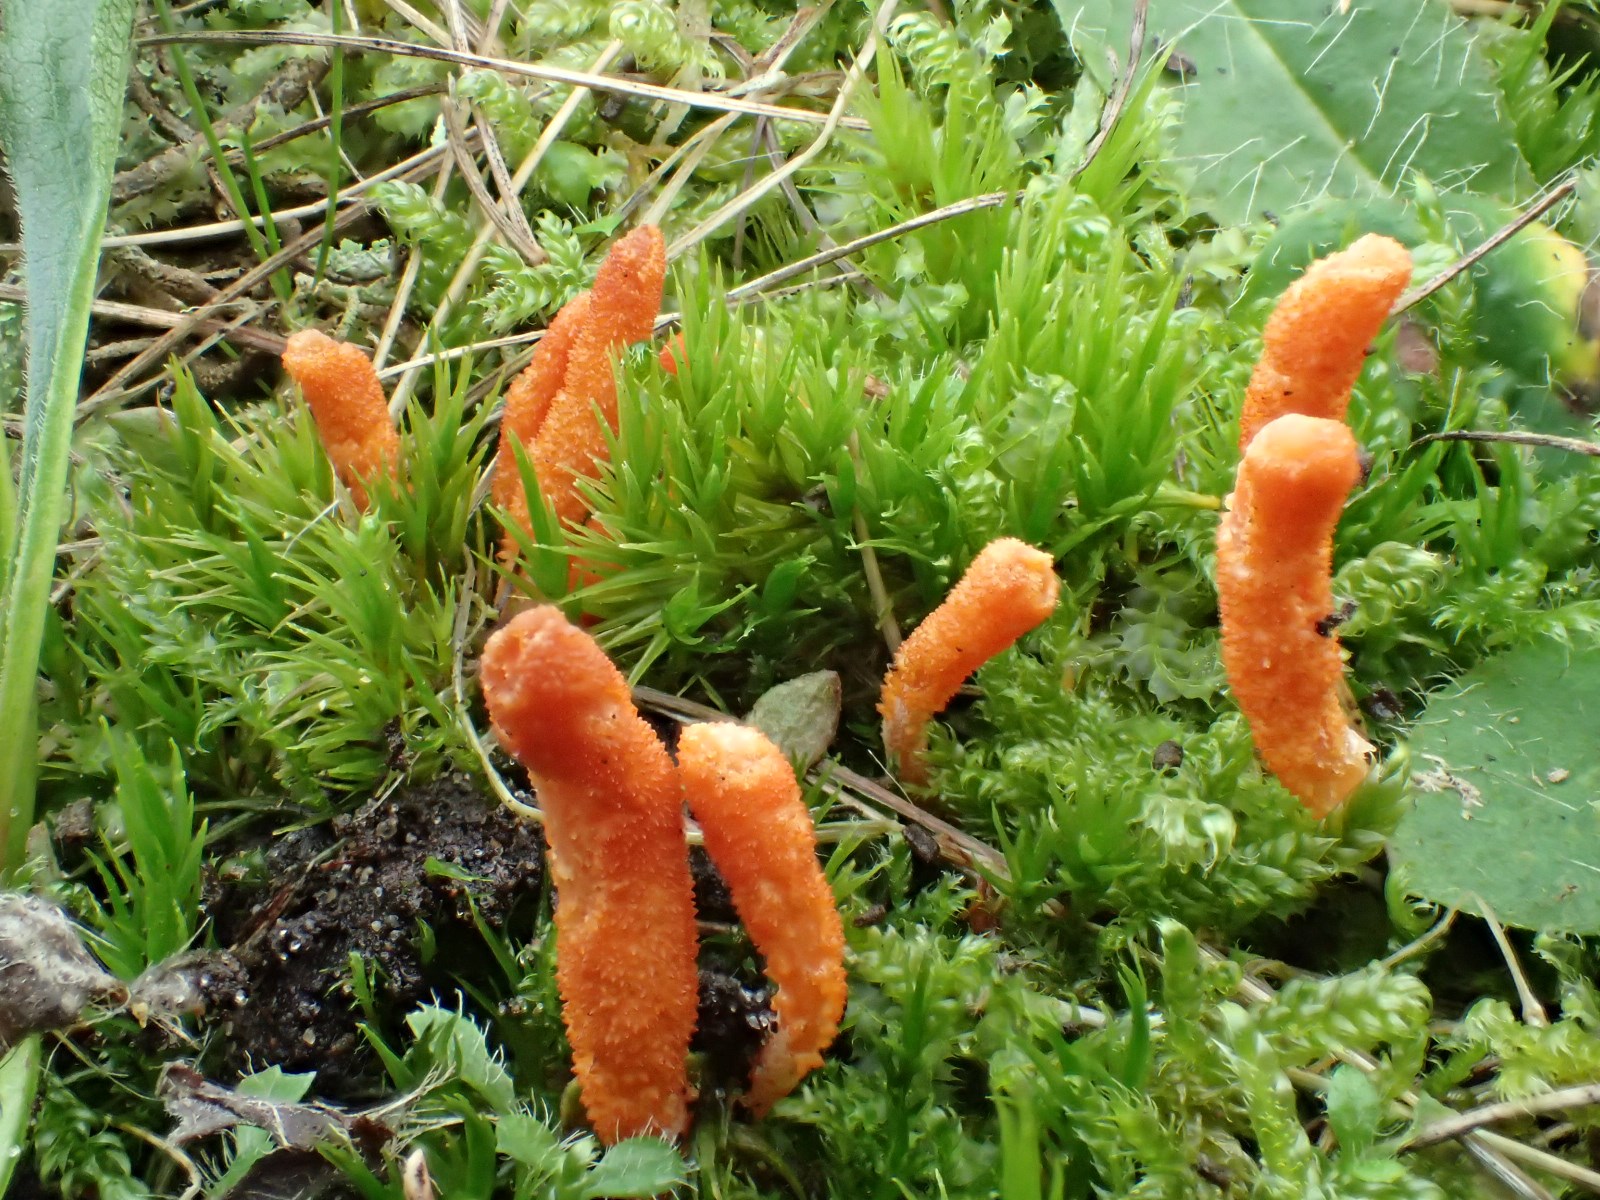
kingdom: Fungi
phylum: Ascomycota
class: Sordariomycetes
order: Hypocreales
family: Cordycipitaceae
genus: Cordyceps
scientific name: Cordyceps militaris
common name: puppe-snyltekølle
